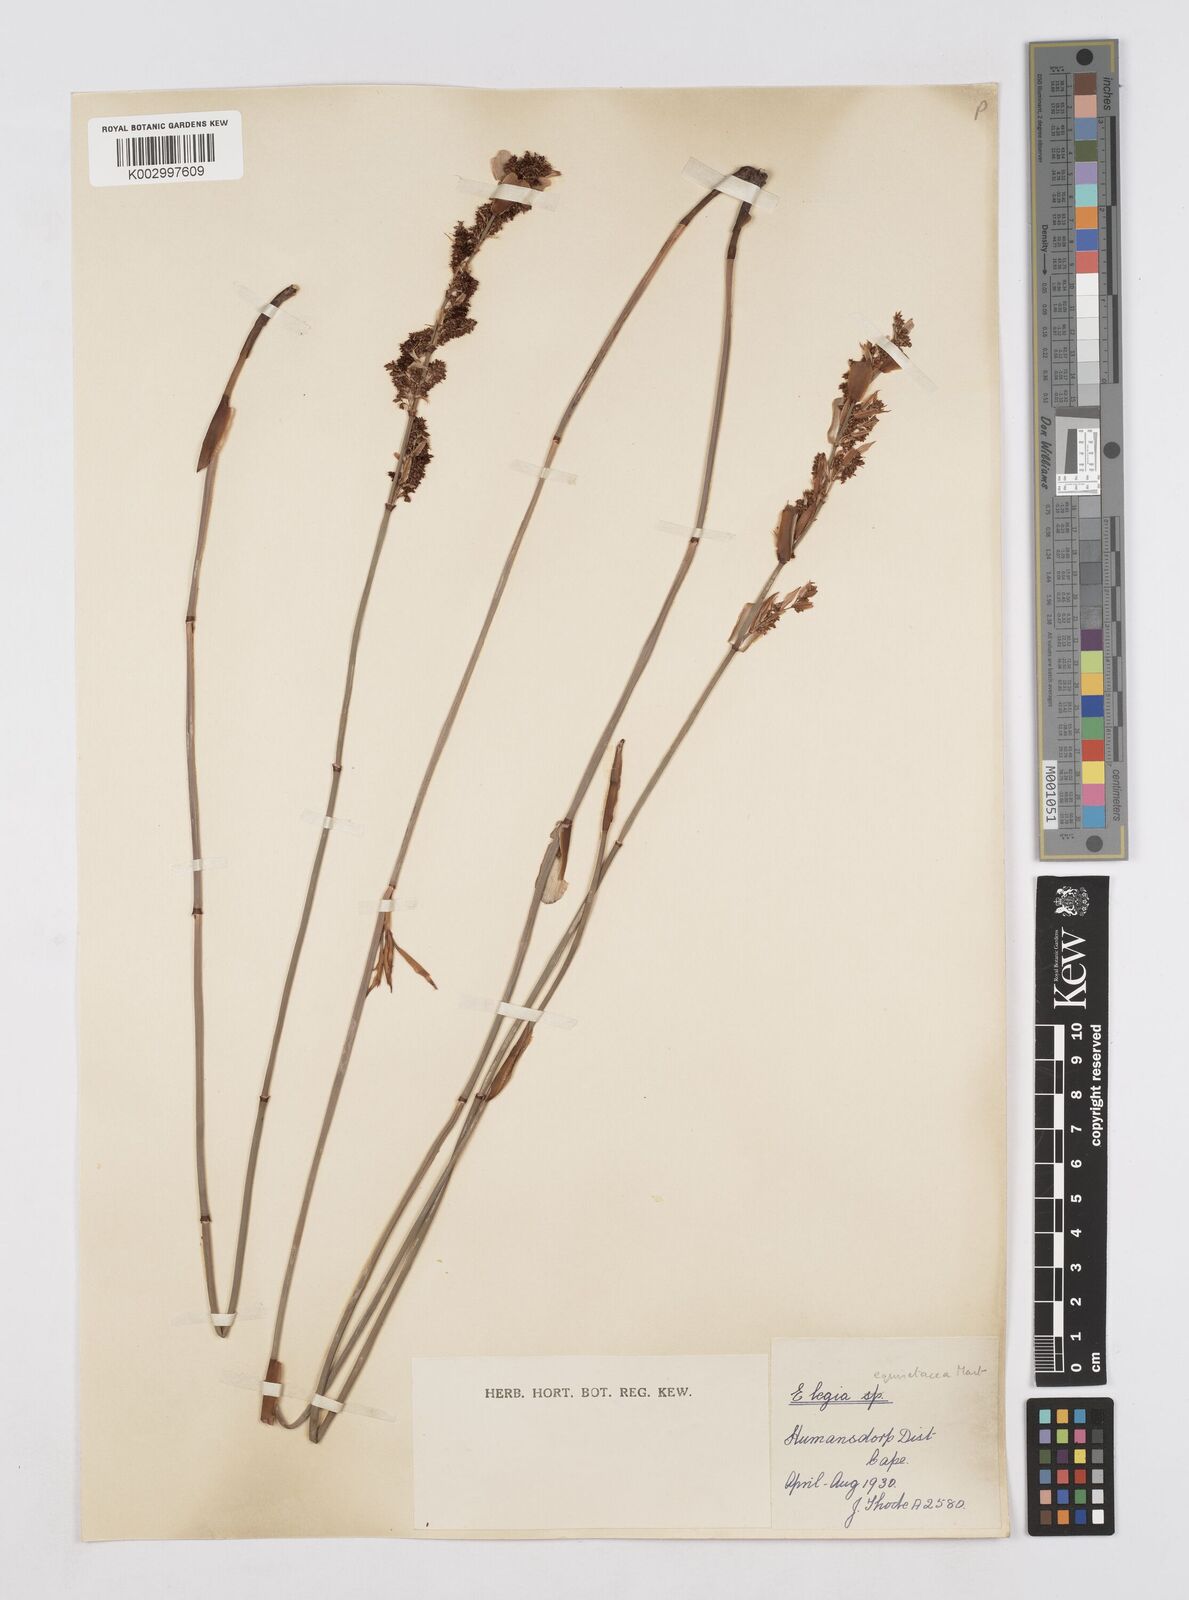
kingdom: Plantae
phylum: Tracheophyta
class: Liliopsida
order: Poales
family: Restionaceae
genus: Elegia
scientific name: Elegia equisetacea
